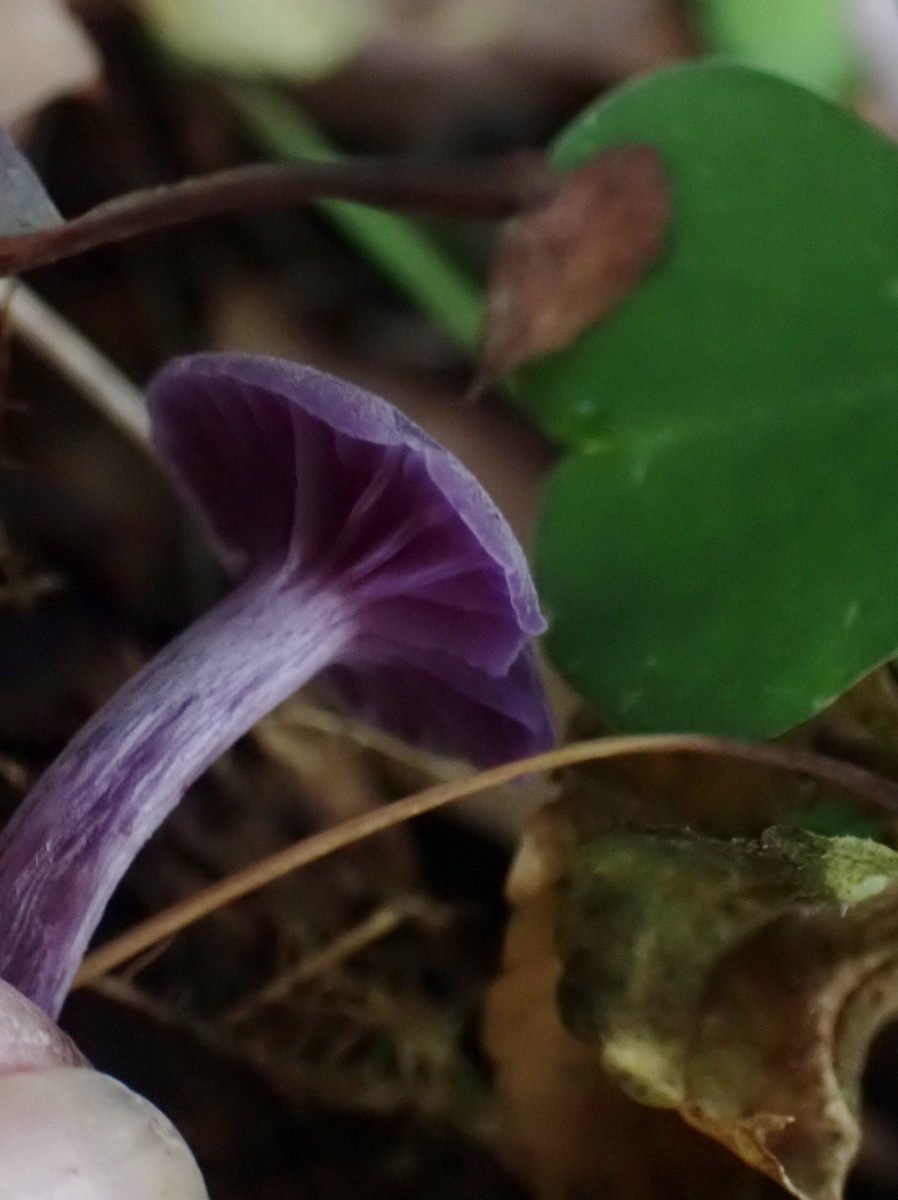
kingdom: Fungi
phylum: Basidiomycota
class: Agaricomycetes
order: Agaricales
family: Hydnangiaceae
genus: Laccaria
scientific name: Laccaria amethystina
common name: violet ametysthat
